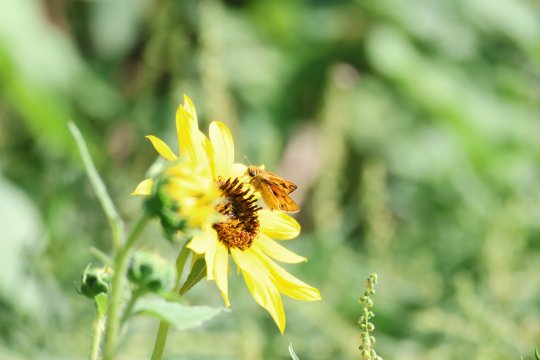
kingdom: Animalia
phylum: Arthropoda
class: Insecta
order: Lepidoptera
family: Hesperiidae
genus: Hylephila
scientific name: Hylephila phyleus
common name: Fiery Skipper
